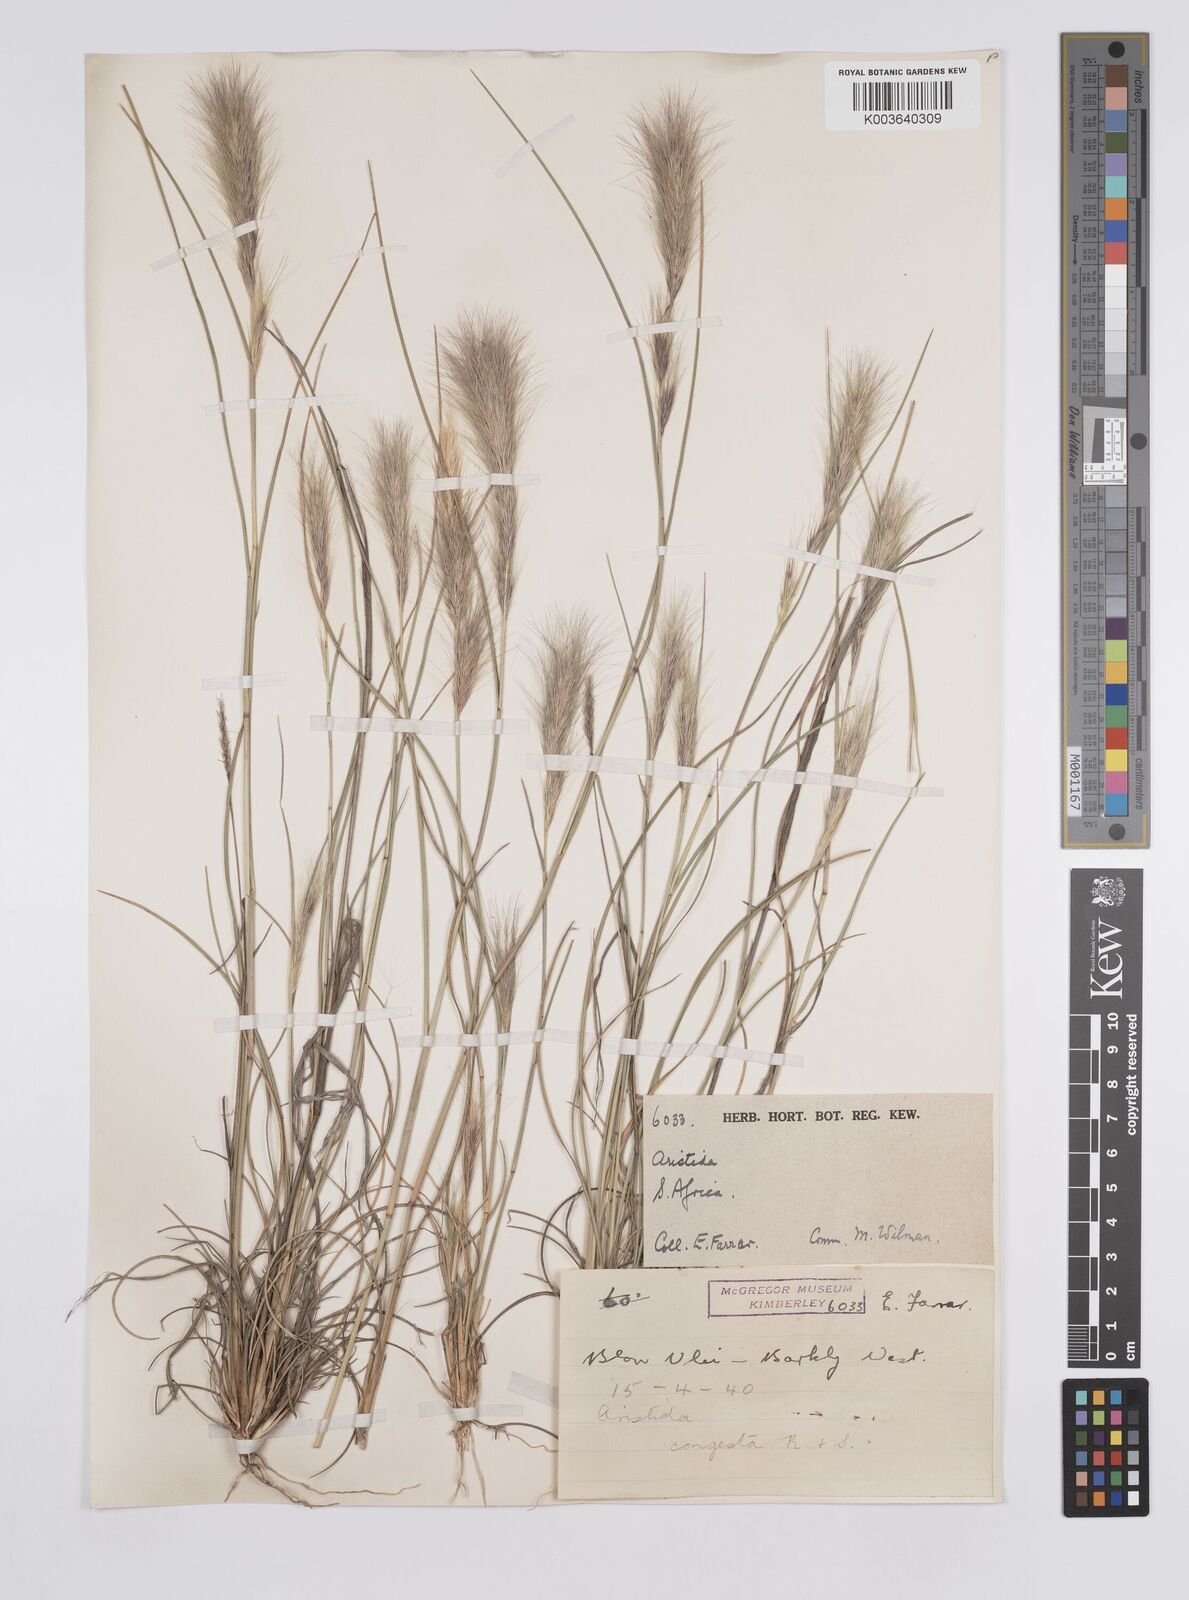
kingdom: Plantae
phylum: Tracheophyta
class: Liliopsida
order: Poales
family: Poaceae
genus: Aristida
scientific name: Aristida congesta
